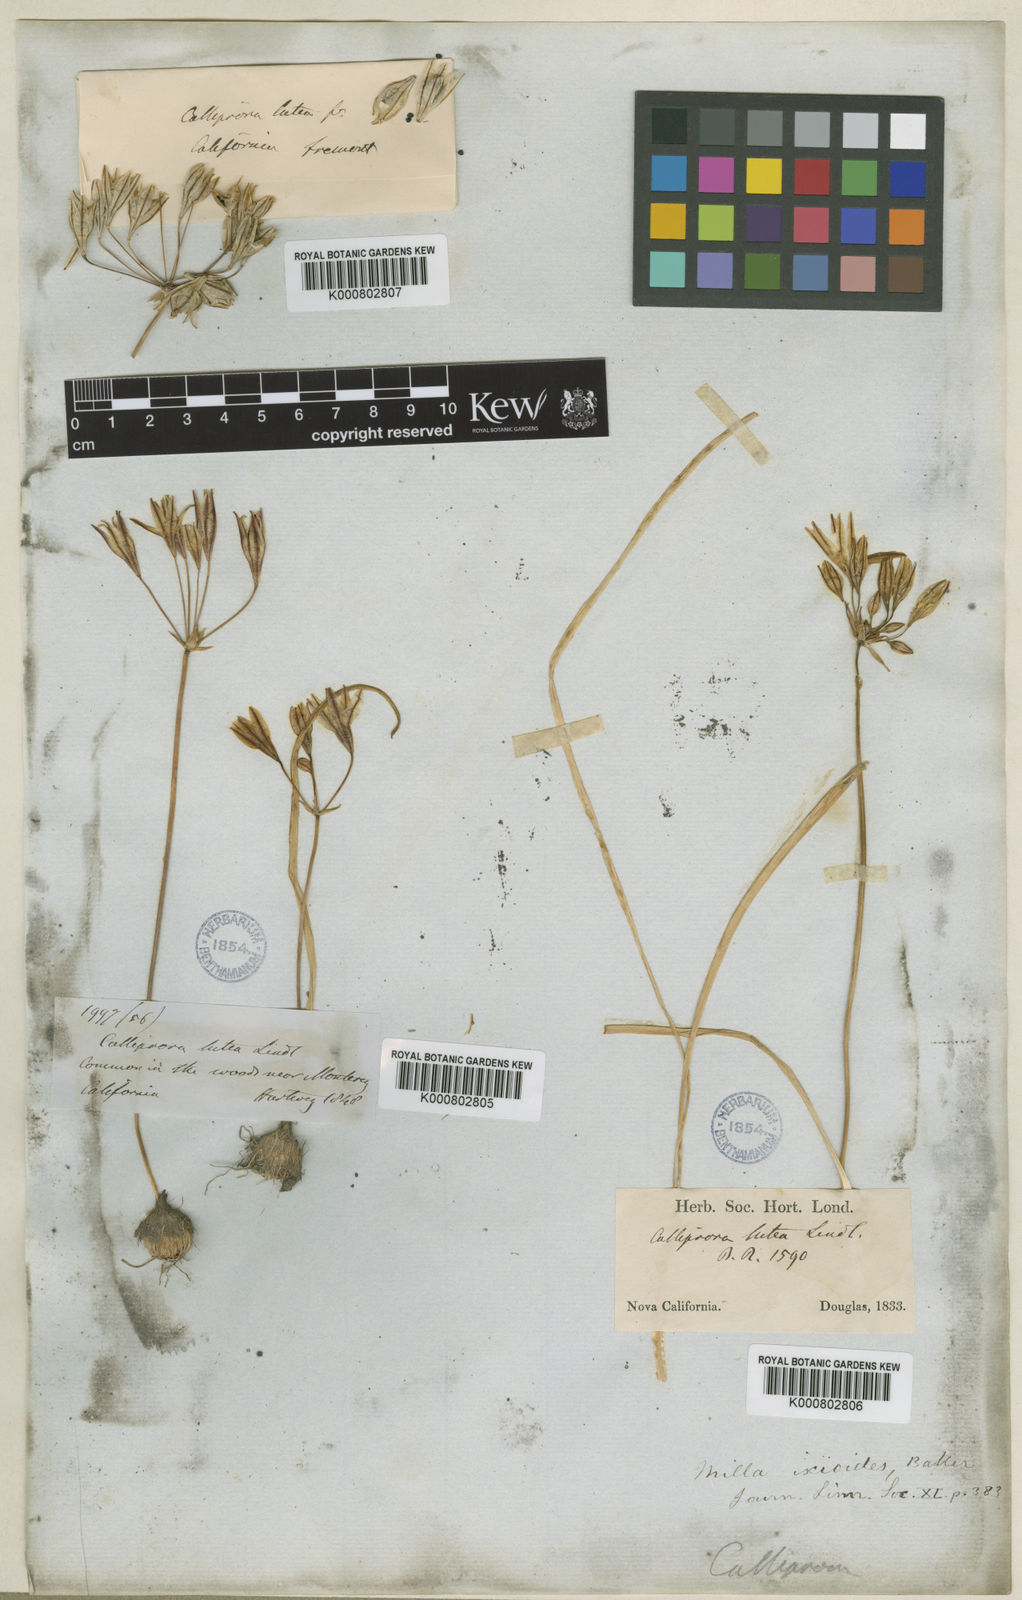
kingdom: Plantae
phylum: Tracheophyta
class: Liliopsida
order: Asparagales
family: Asparagaceae
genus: Triteleia
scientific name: Triteleia ixioides
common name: Yellow-brodiaea
